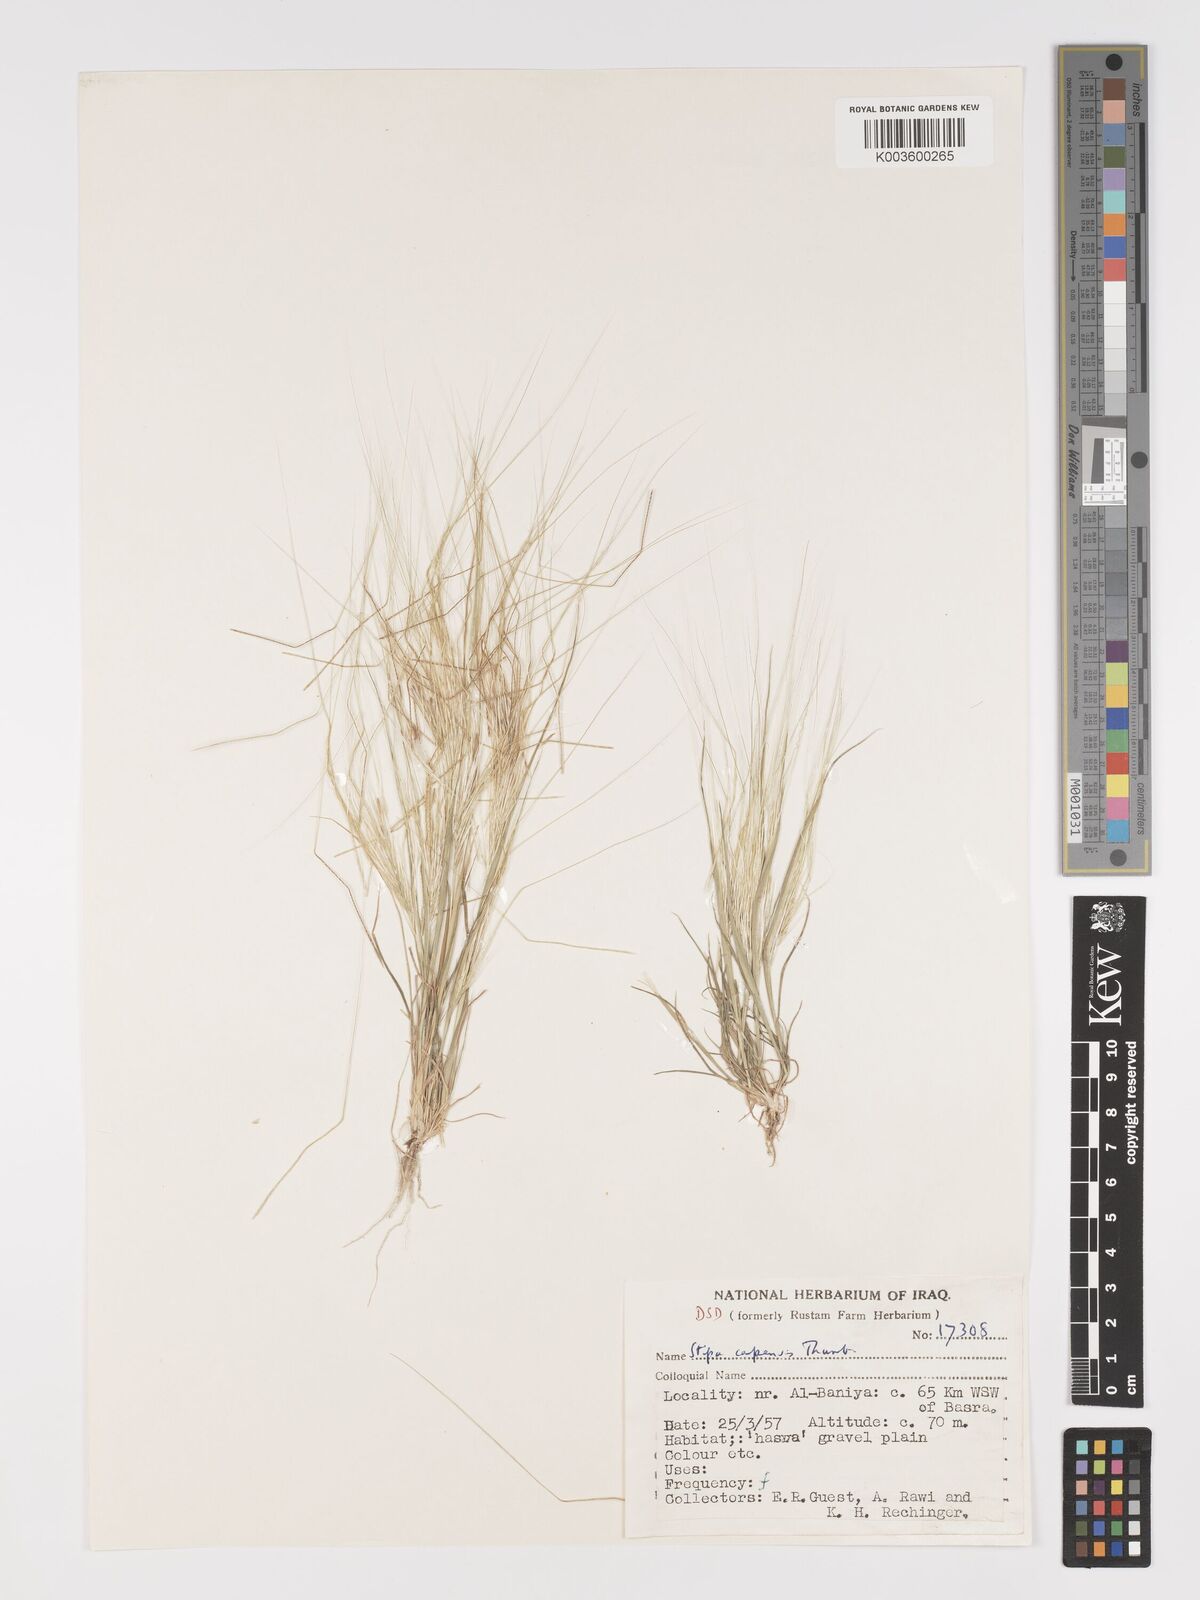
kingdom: Plantae
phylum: Tracheophyta
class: Liliopsida
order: Poales
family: Poaceae
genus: Stipellula
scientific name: Stipellula capensis
